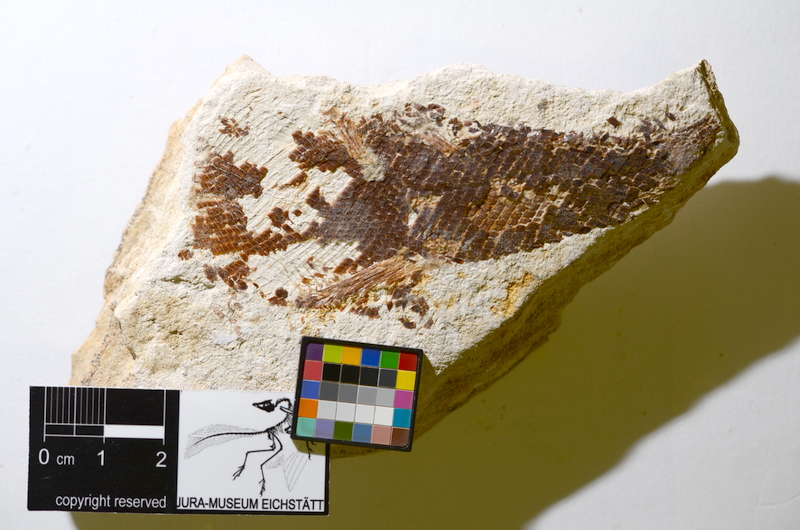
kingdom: Animalia
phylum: Chordata
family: Ophiopsiellidae
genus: Furo
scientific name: Furo
